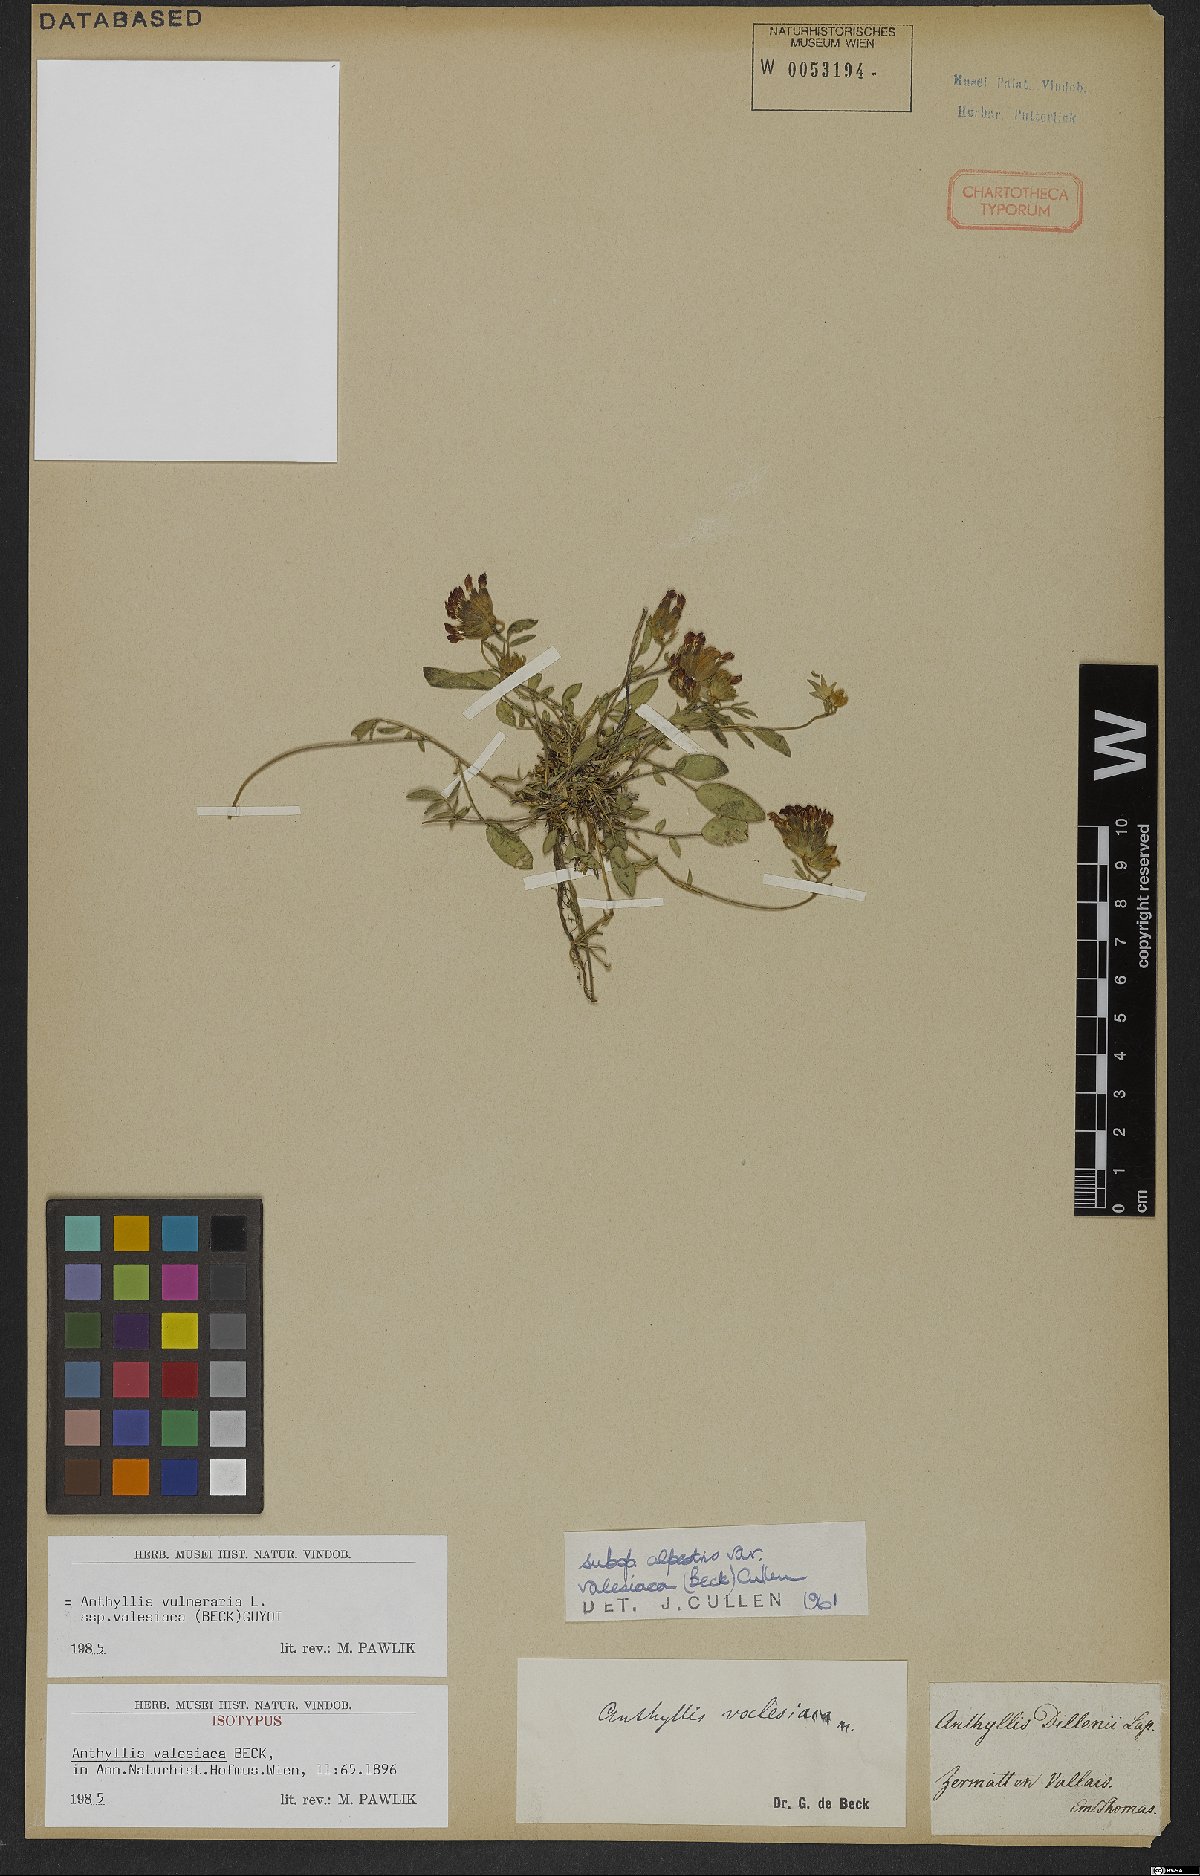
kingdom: Plantae
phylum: Tracheophyta
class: Magnoliopsida
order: Fabales
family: Fabaceae
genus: Anthyllis
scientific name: Anthyllis vulneraria
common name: Kidney vetch
